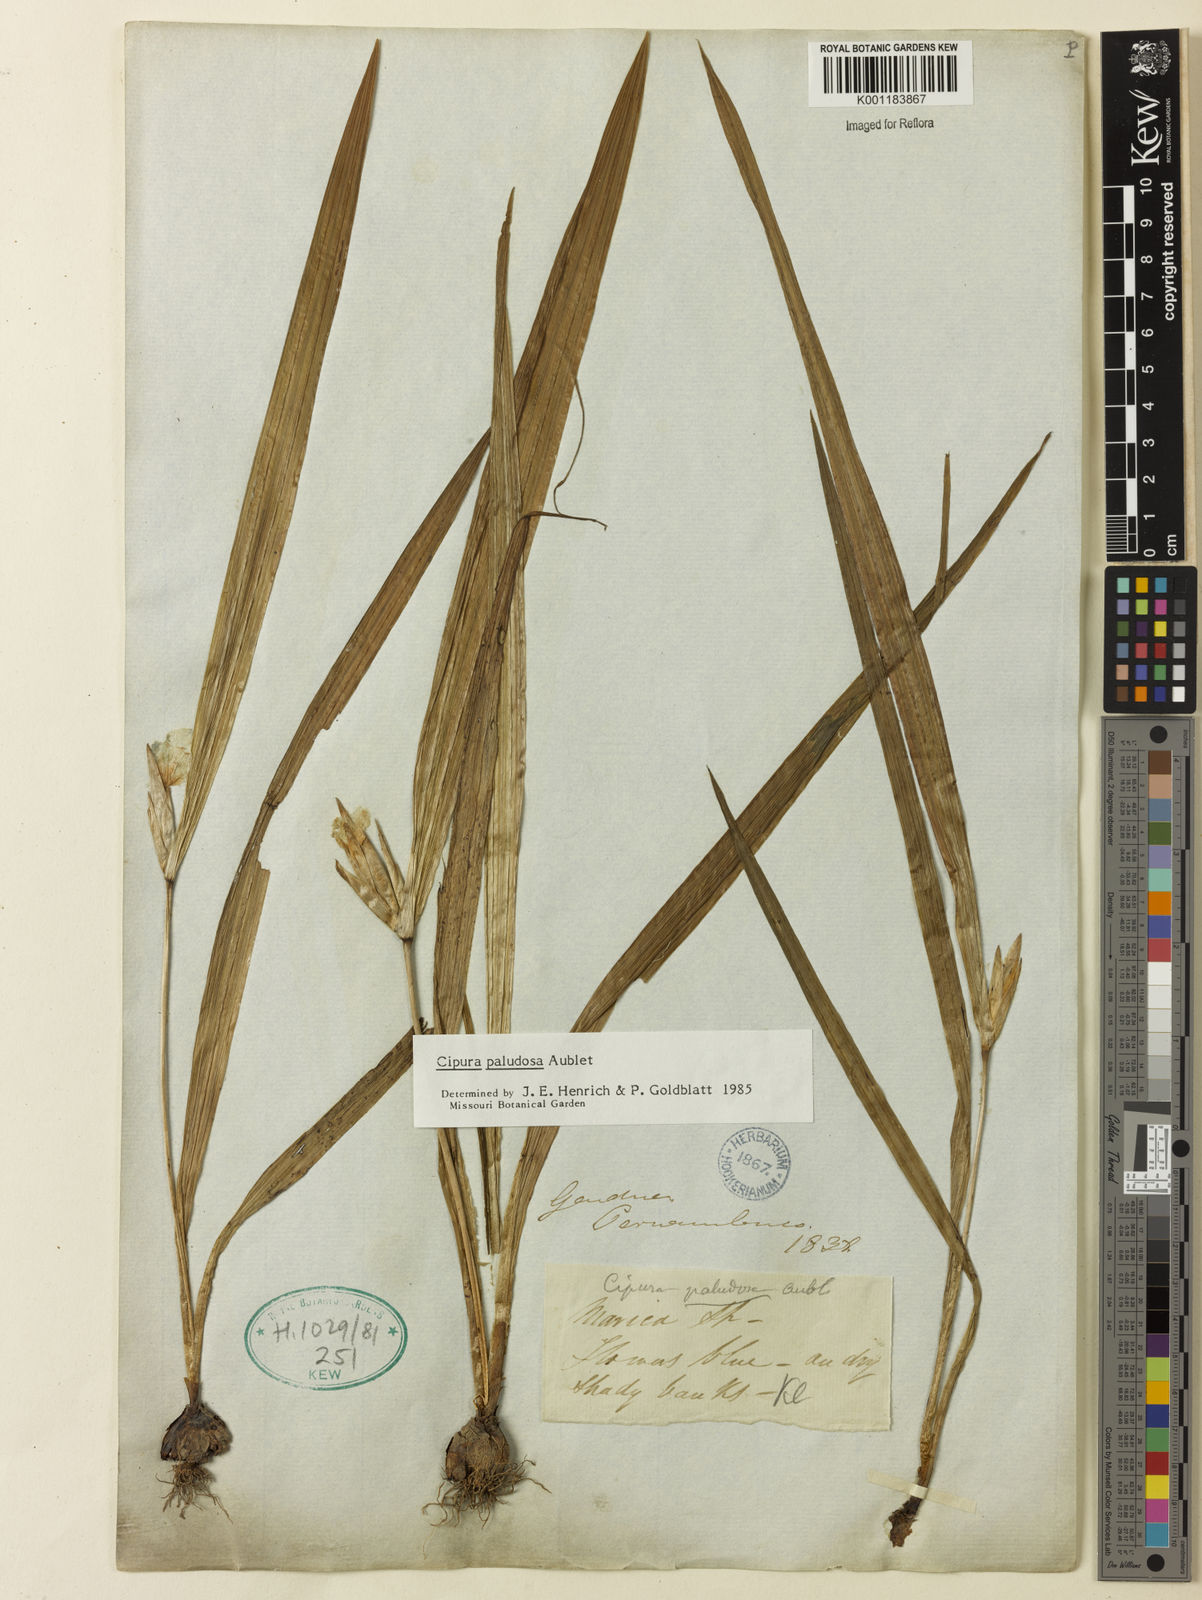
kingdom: Plantae
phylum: Tracheophyta
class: Liliopsida
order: Asparagales
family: Iridaceae
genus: Cipura
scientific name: Cipura paludosa
